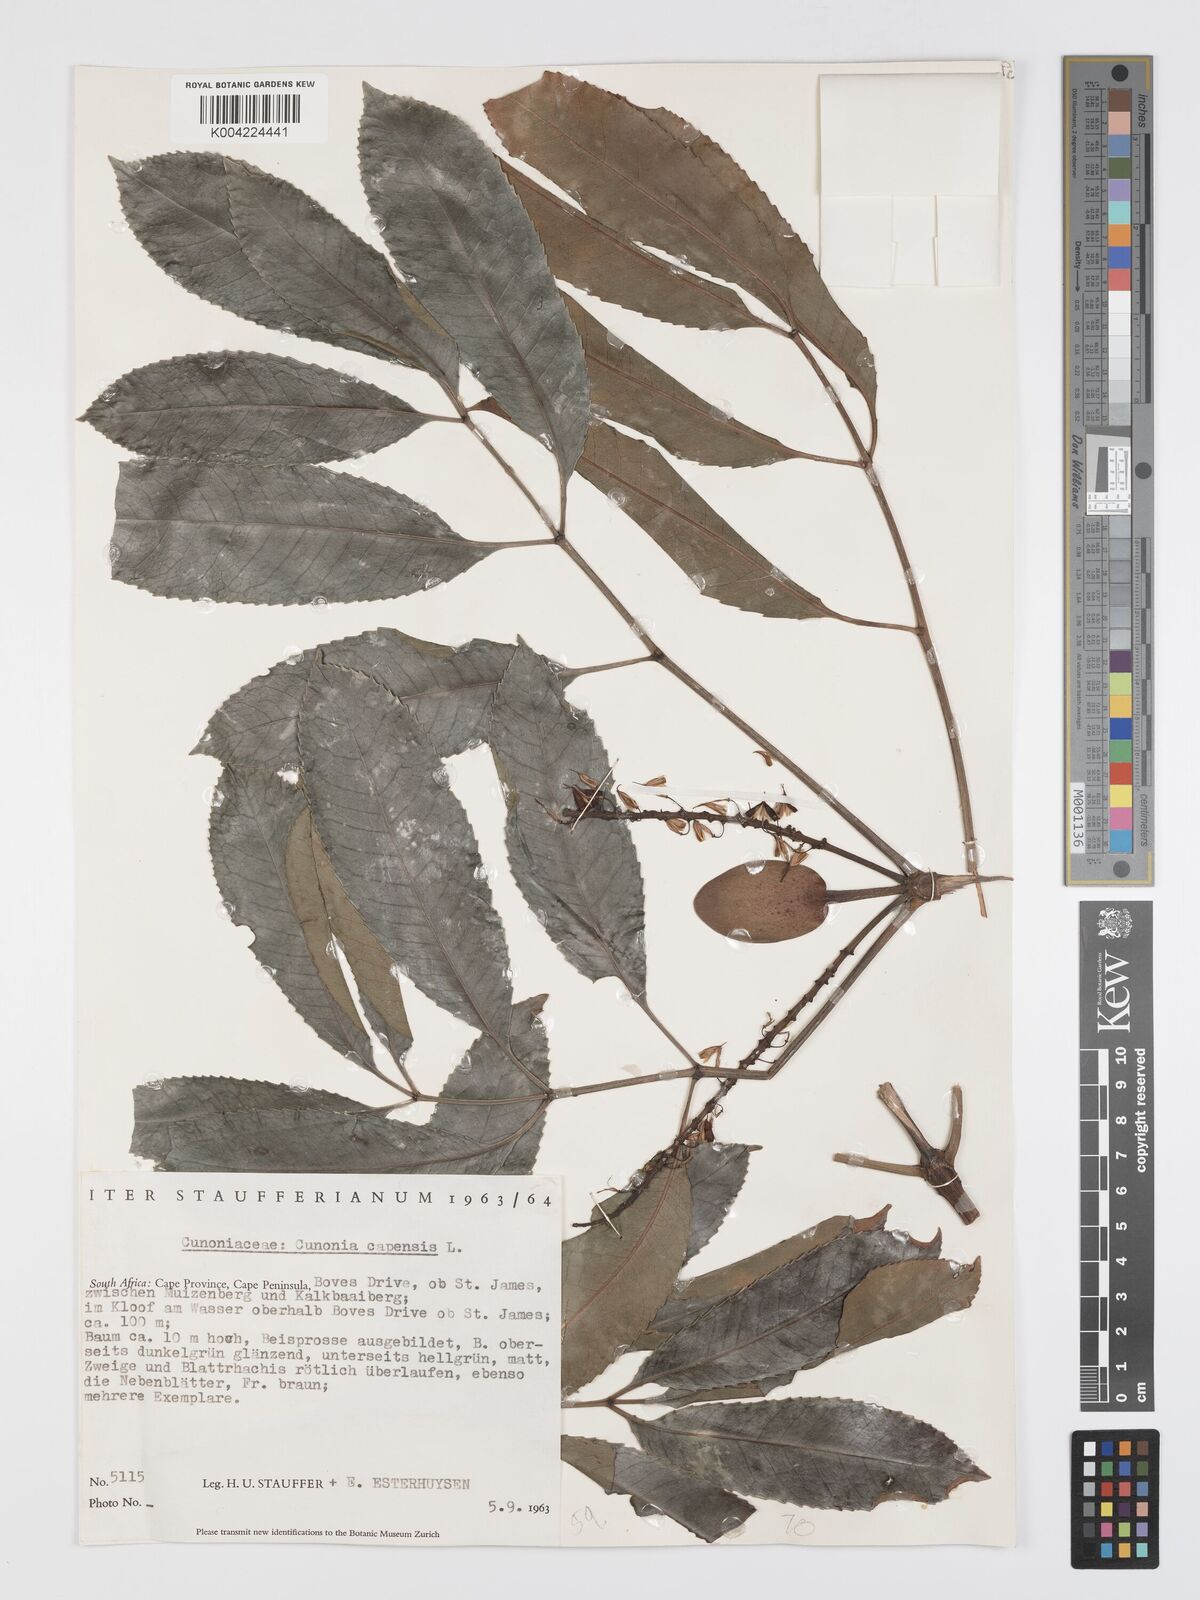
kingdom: Plantae
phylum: Tracheophyta
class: Magnoliopsida
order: Oxalidales
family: Cunoniaceae
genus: Cunonia
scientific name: Cunonia capensis
